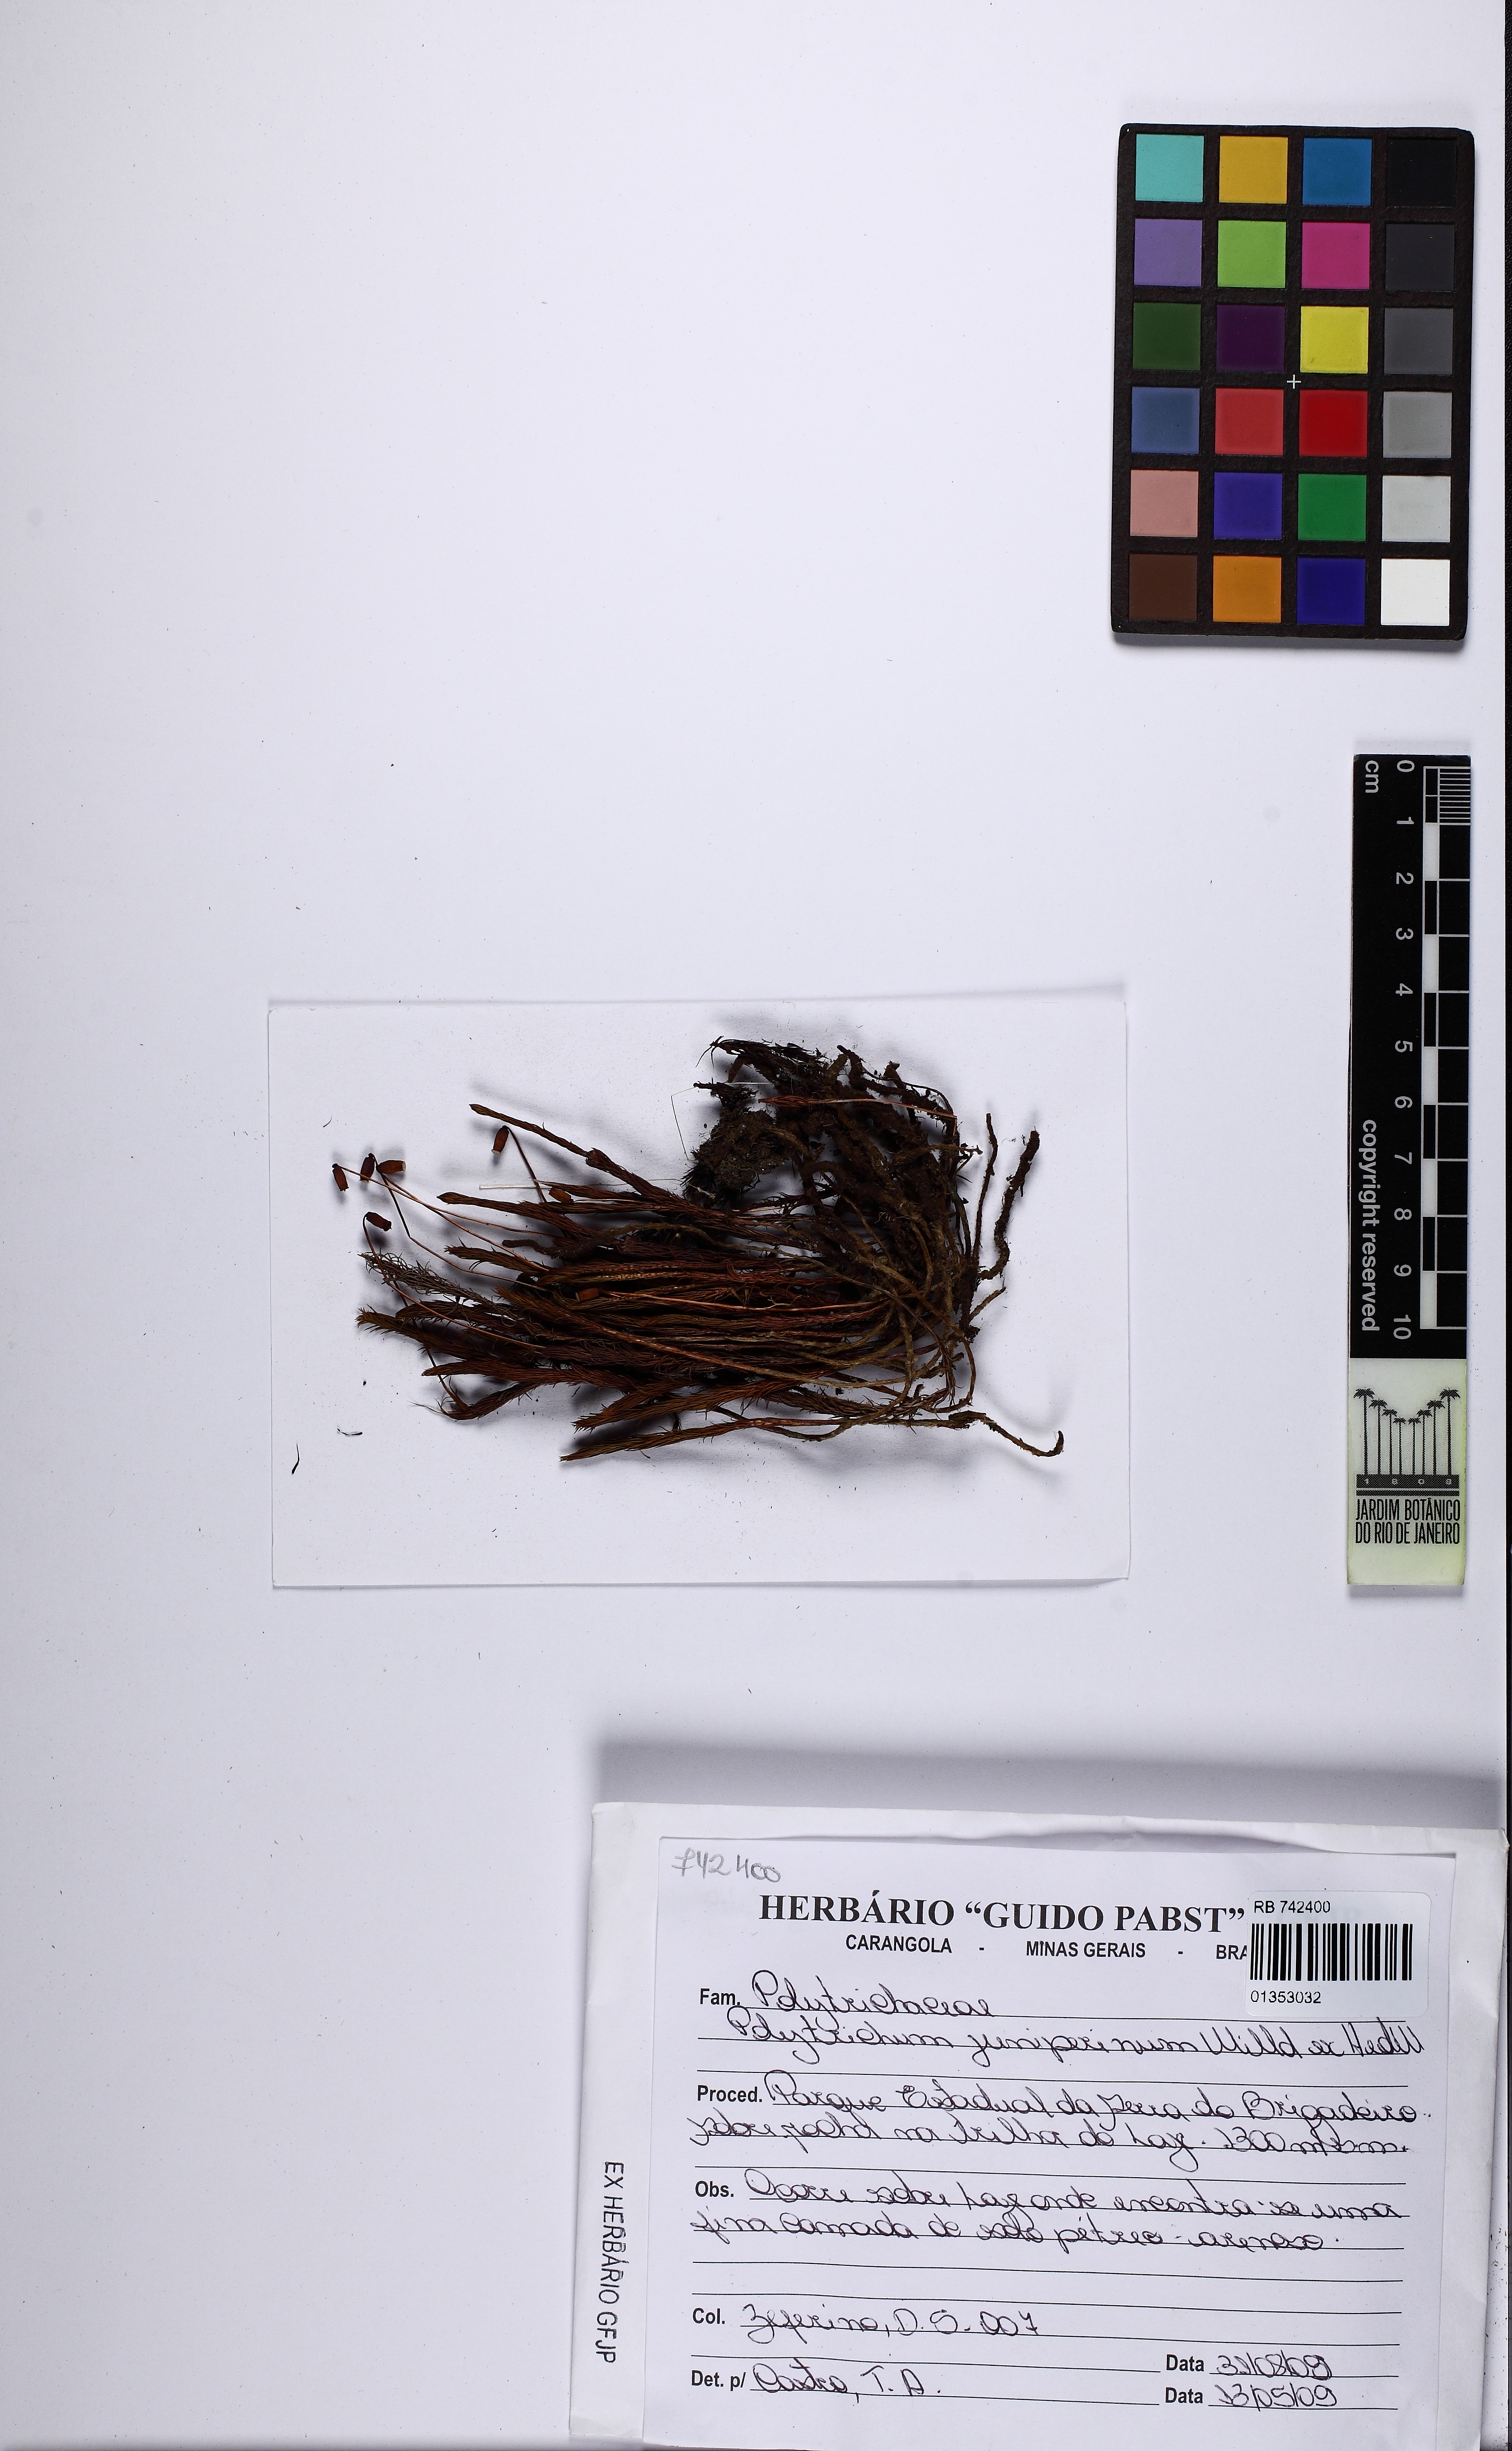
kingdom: Plantae
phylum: Bryophyta
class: Polytrichopsida
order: Polytrichales
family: Polytrichaceae
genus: Polytrichum
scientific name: Polytrichum juniperinum
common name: Juniper haircap moss
